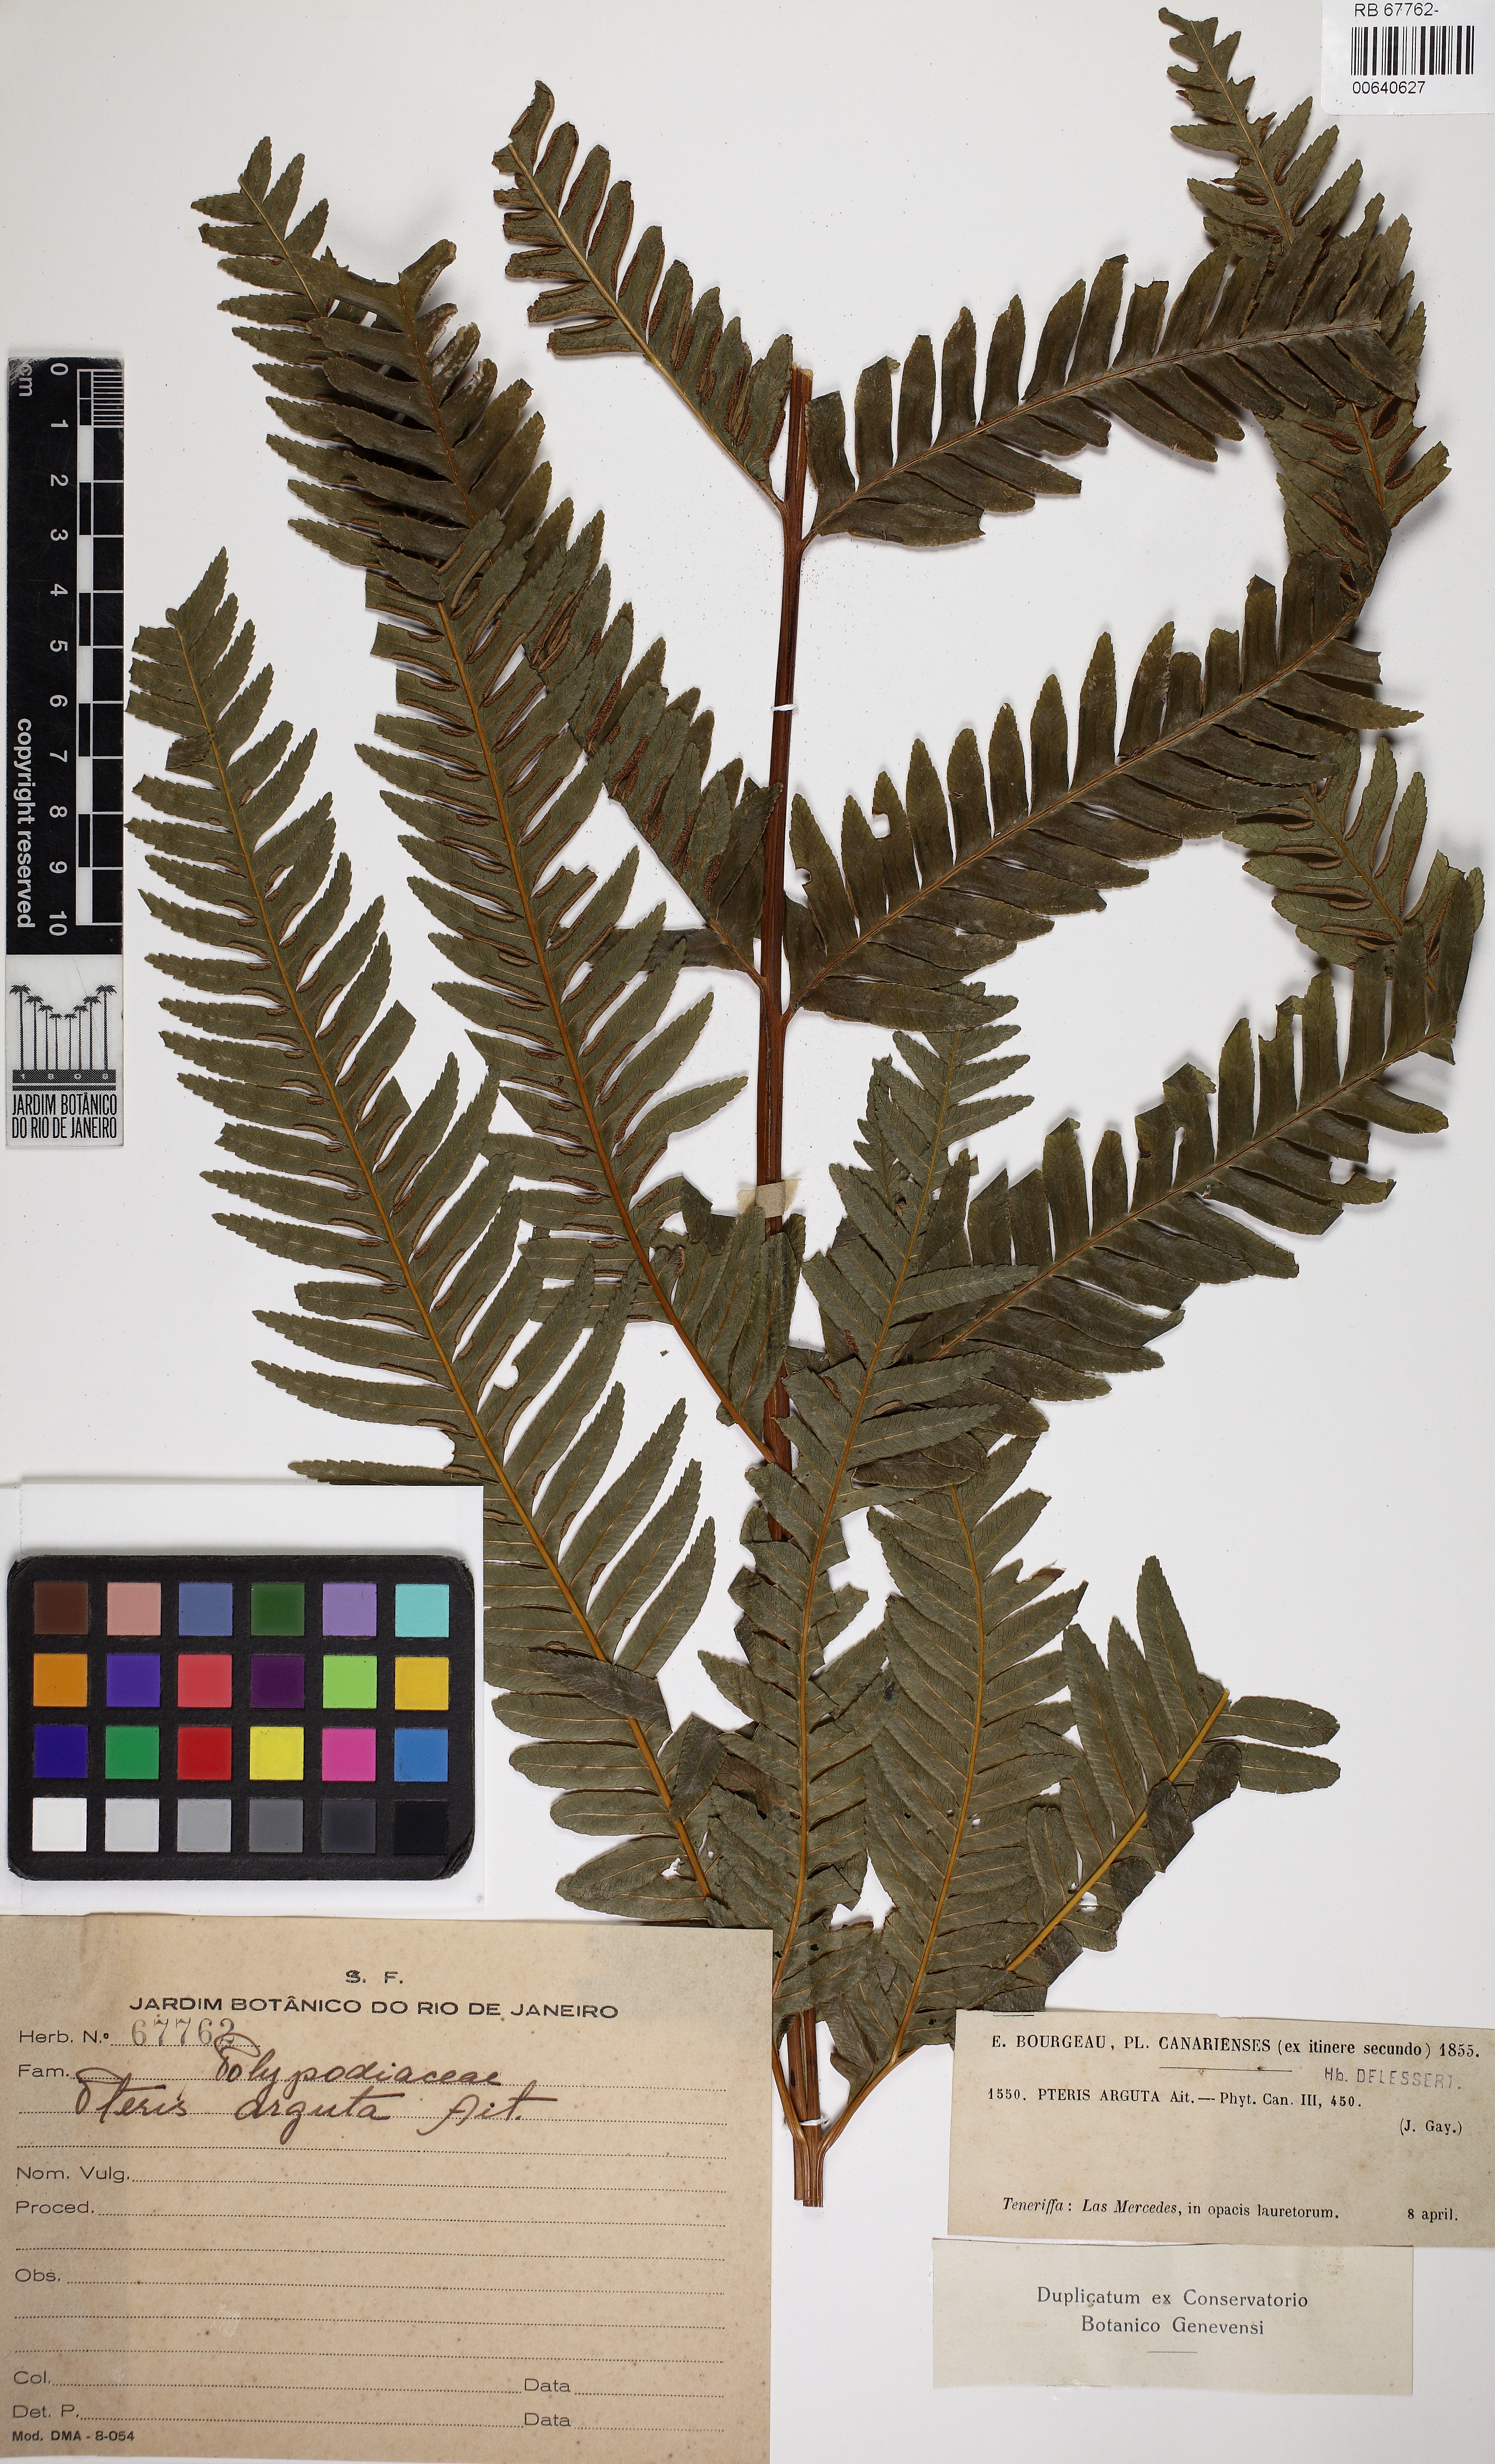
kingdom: Plantae
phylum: Tracheophyta
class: Polypodiopsida
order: Polypodiales
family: Pteridaceae
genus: Pteris
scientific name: Pteris
